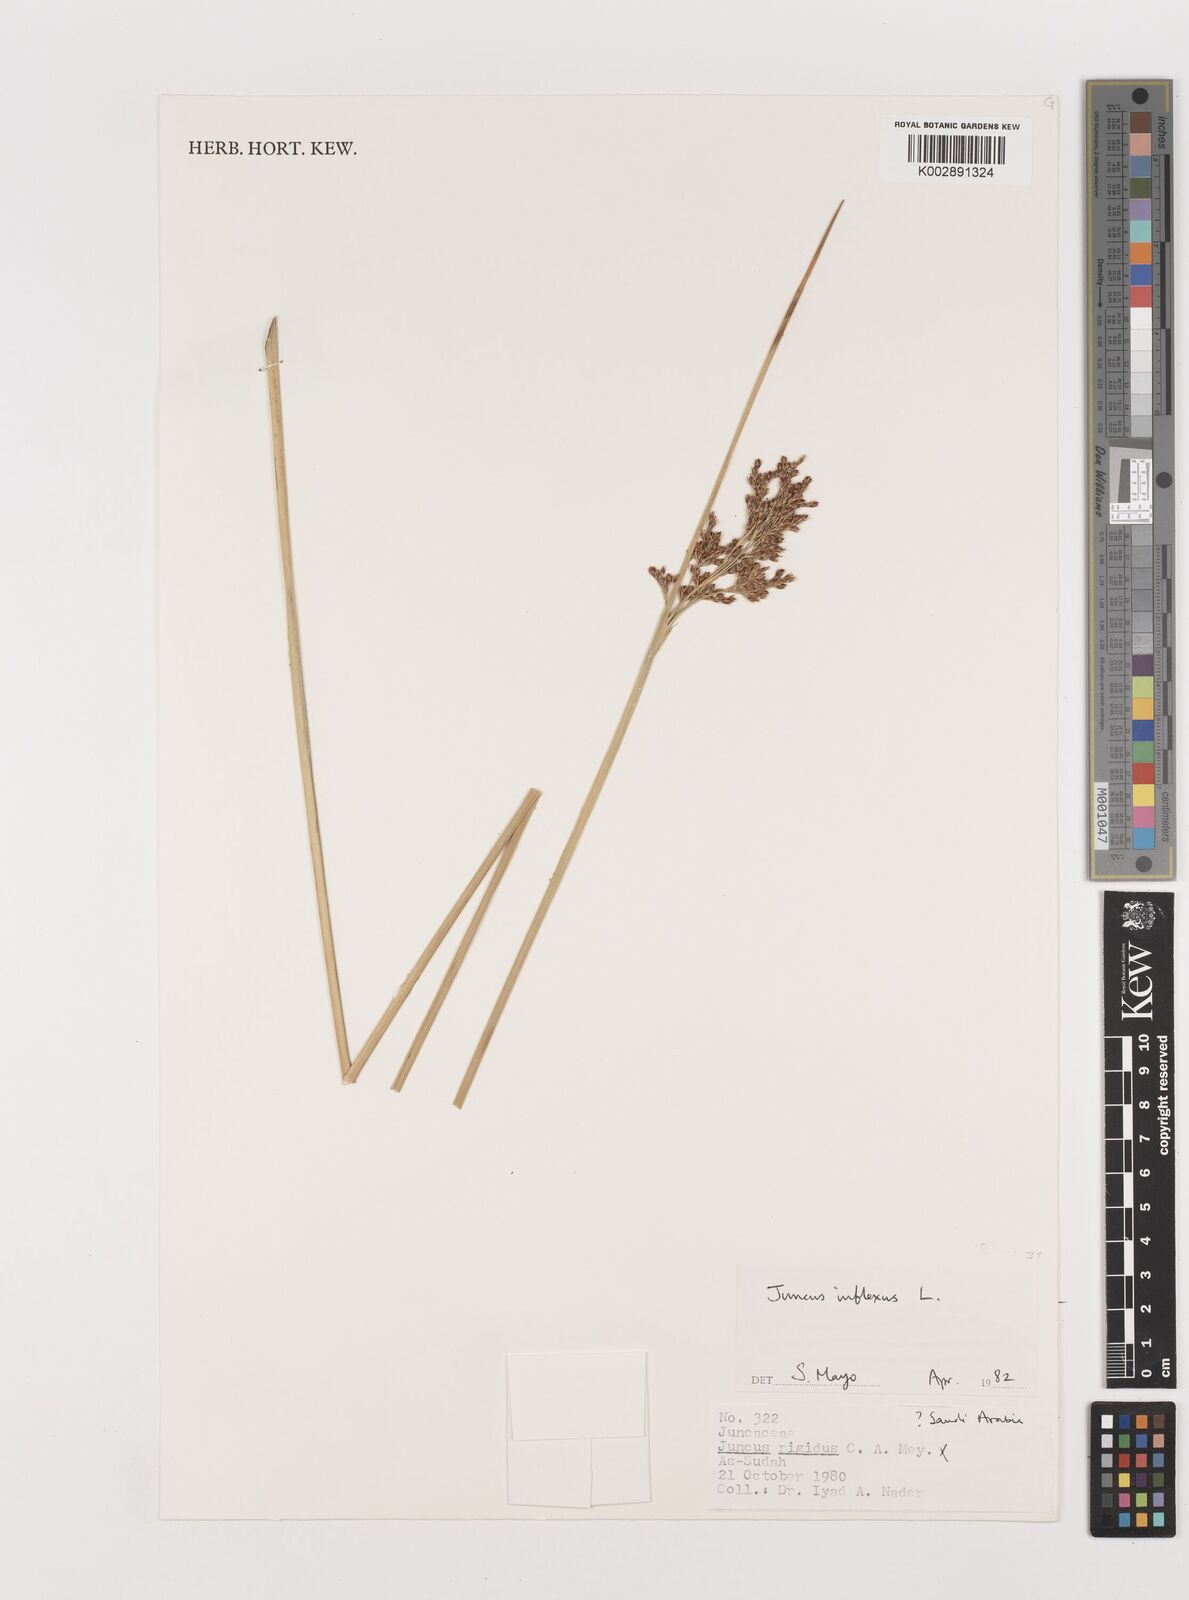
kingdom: Plantae
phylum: Tracheophyta
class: Liliopsida
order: Poales
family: Juncaceae
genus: Juncus
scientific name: Juncus inflexus
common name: Hard rush
